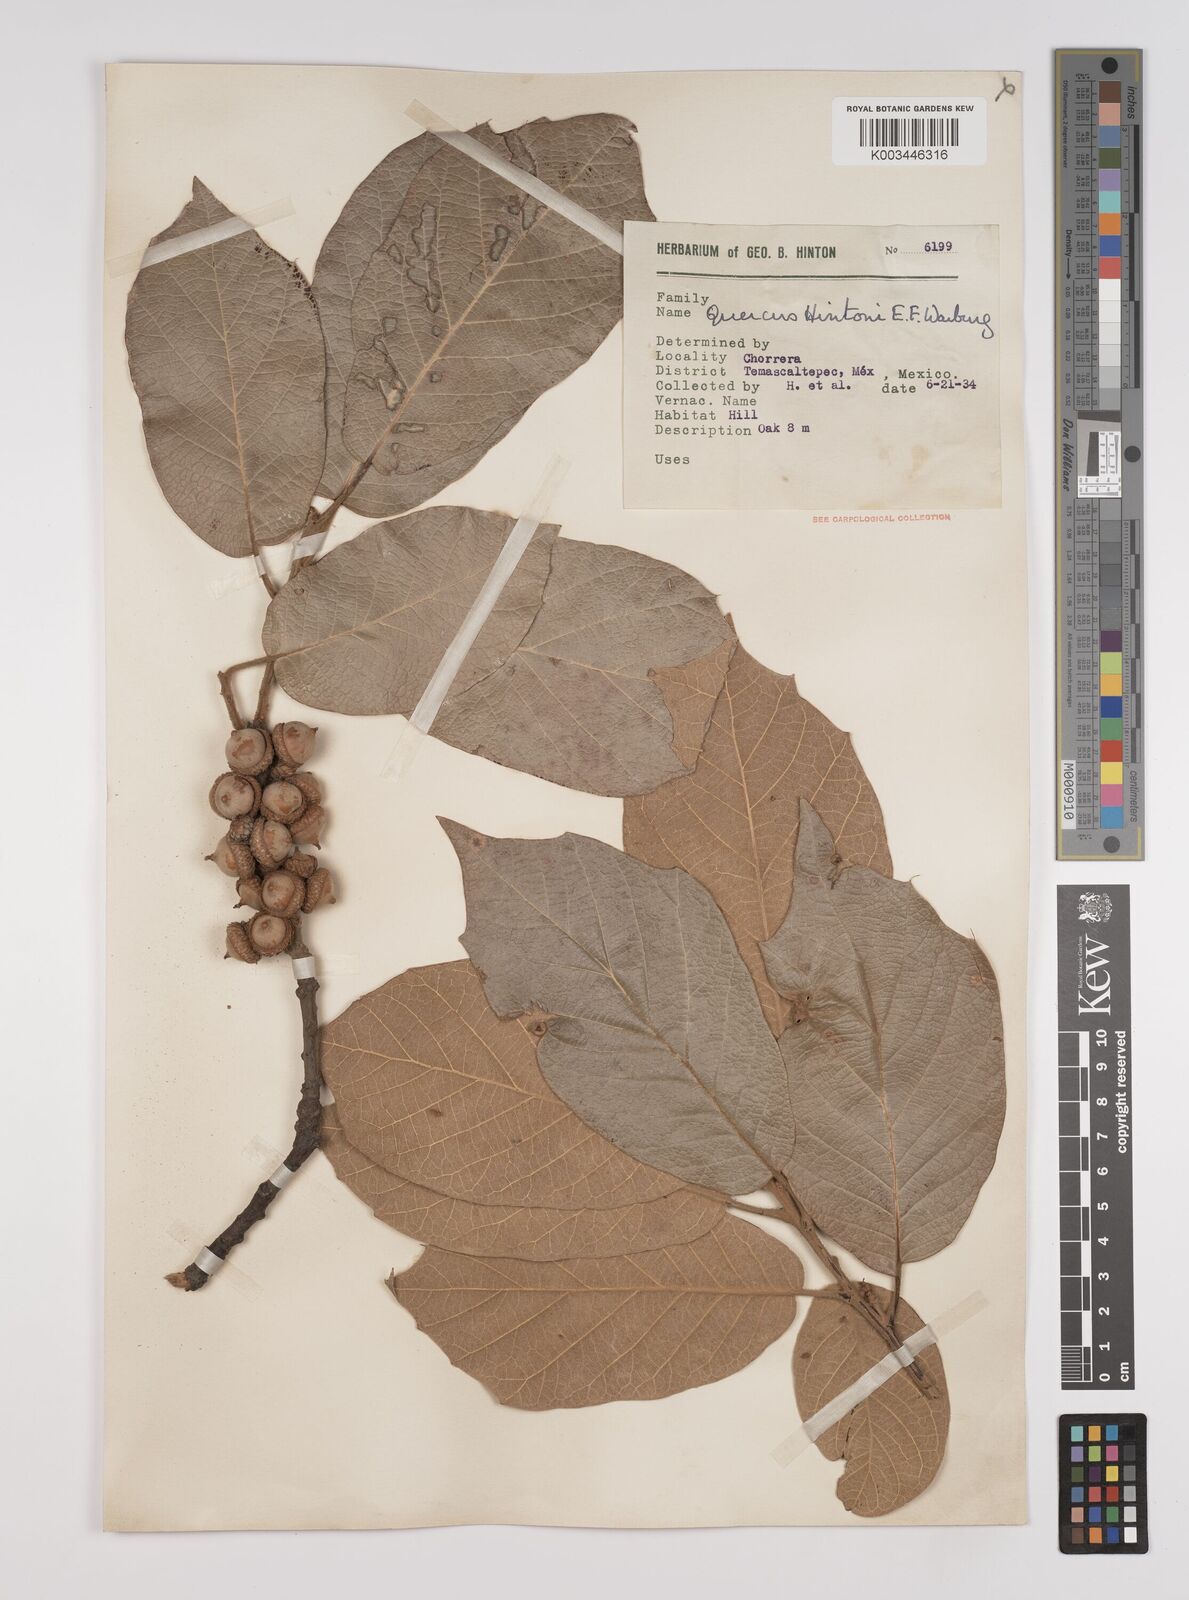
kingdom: Plantae
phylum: Tracheophyta
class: Magnoliopsida
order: Fagales
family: Fagaceae
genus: Quercus
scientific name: Quercus hintonii
